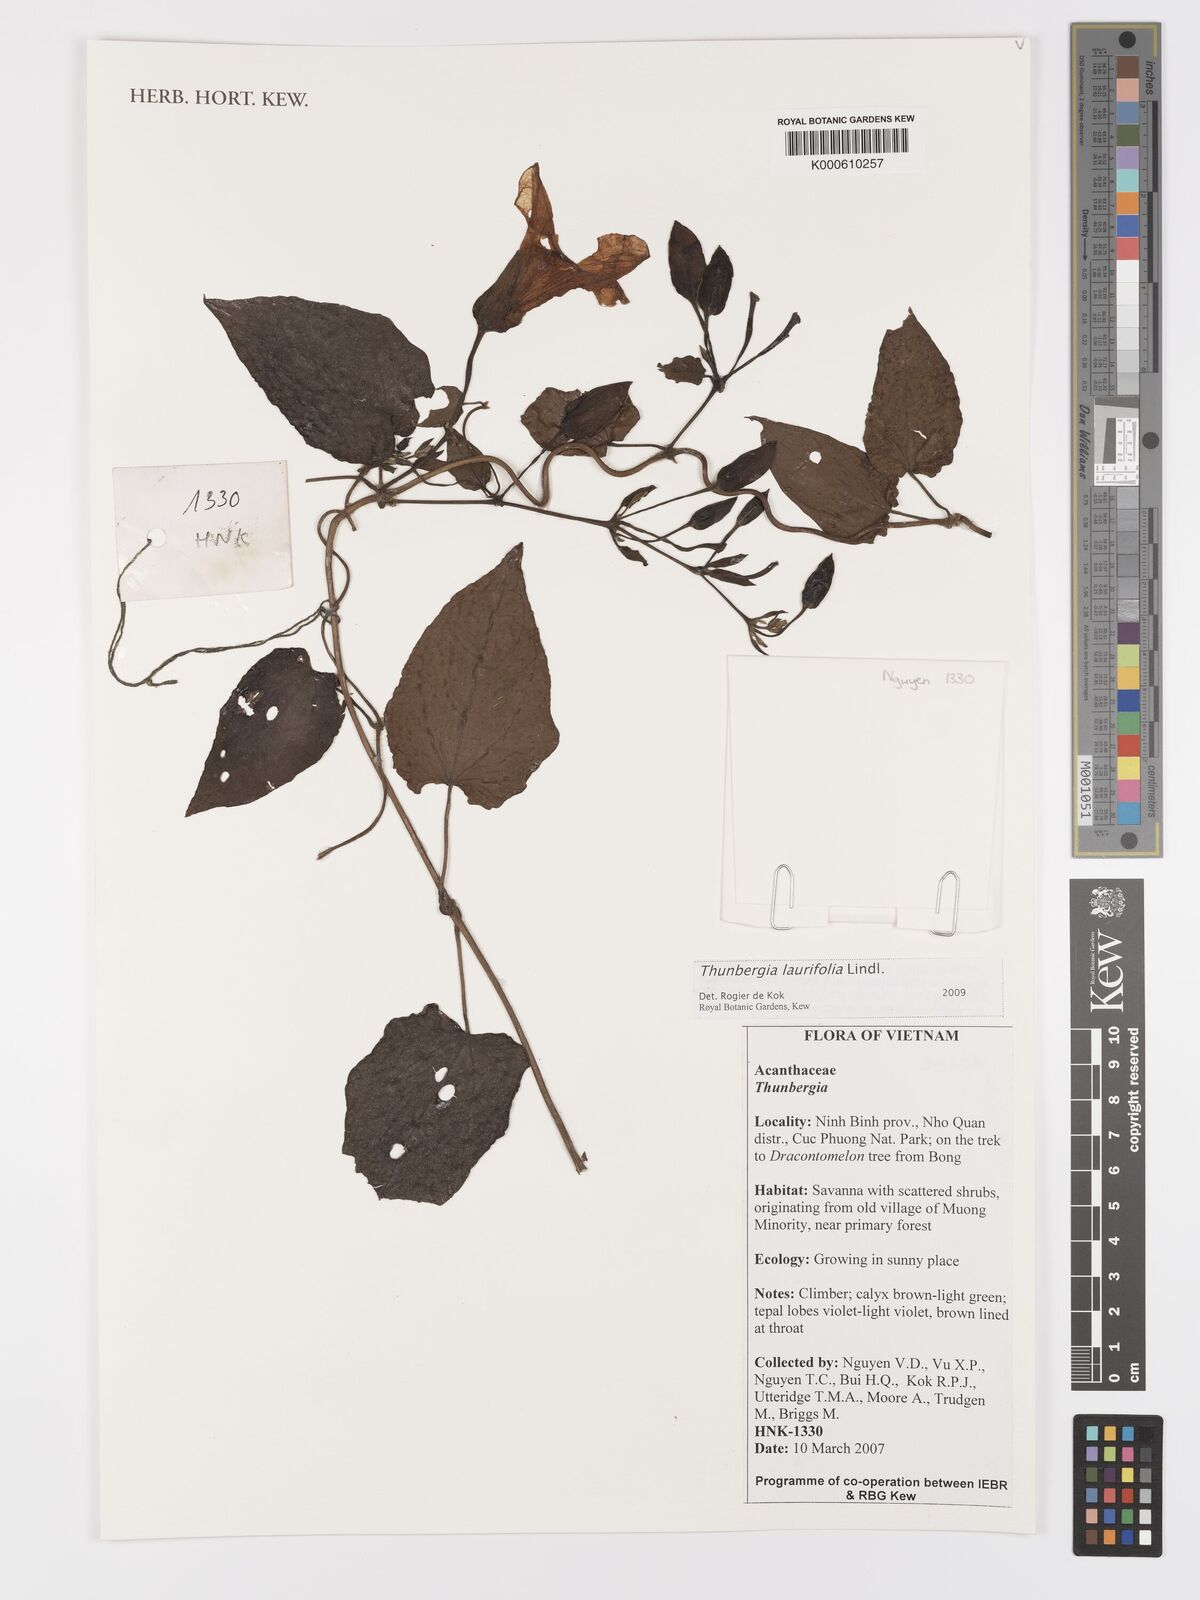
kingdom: Plantae
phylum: Tracheophyta
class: Magnoliopsida
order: Lamiales
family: Acanthaceae
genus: Thunbergia
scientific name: Thunbergia laurifolia
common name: Laurel-leaved thunbergia
